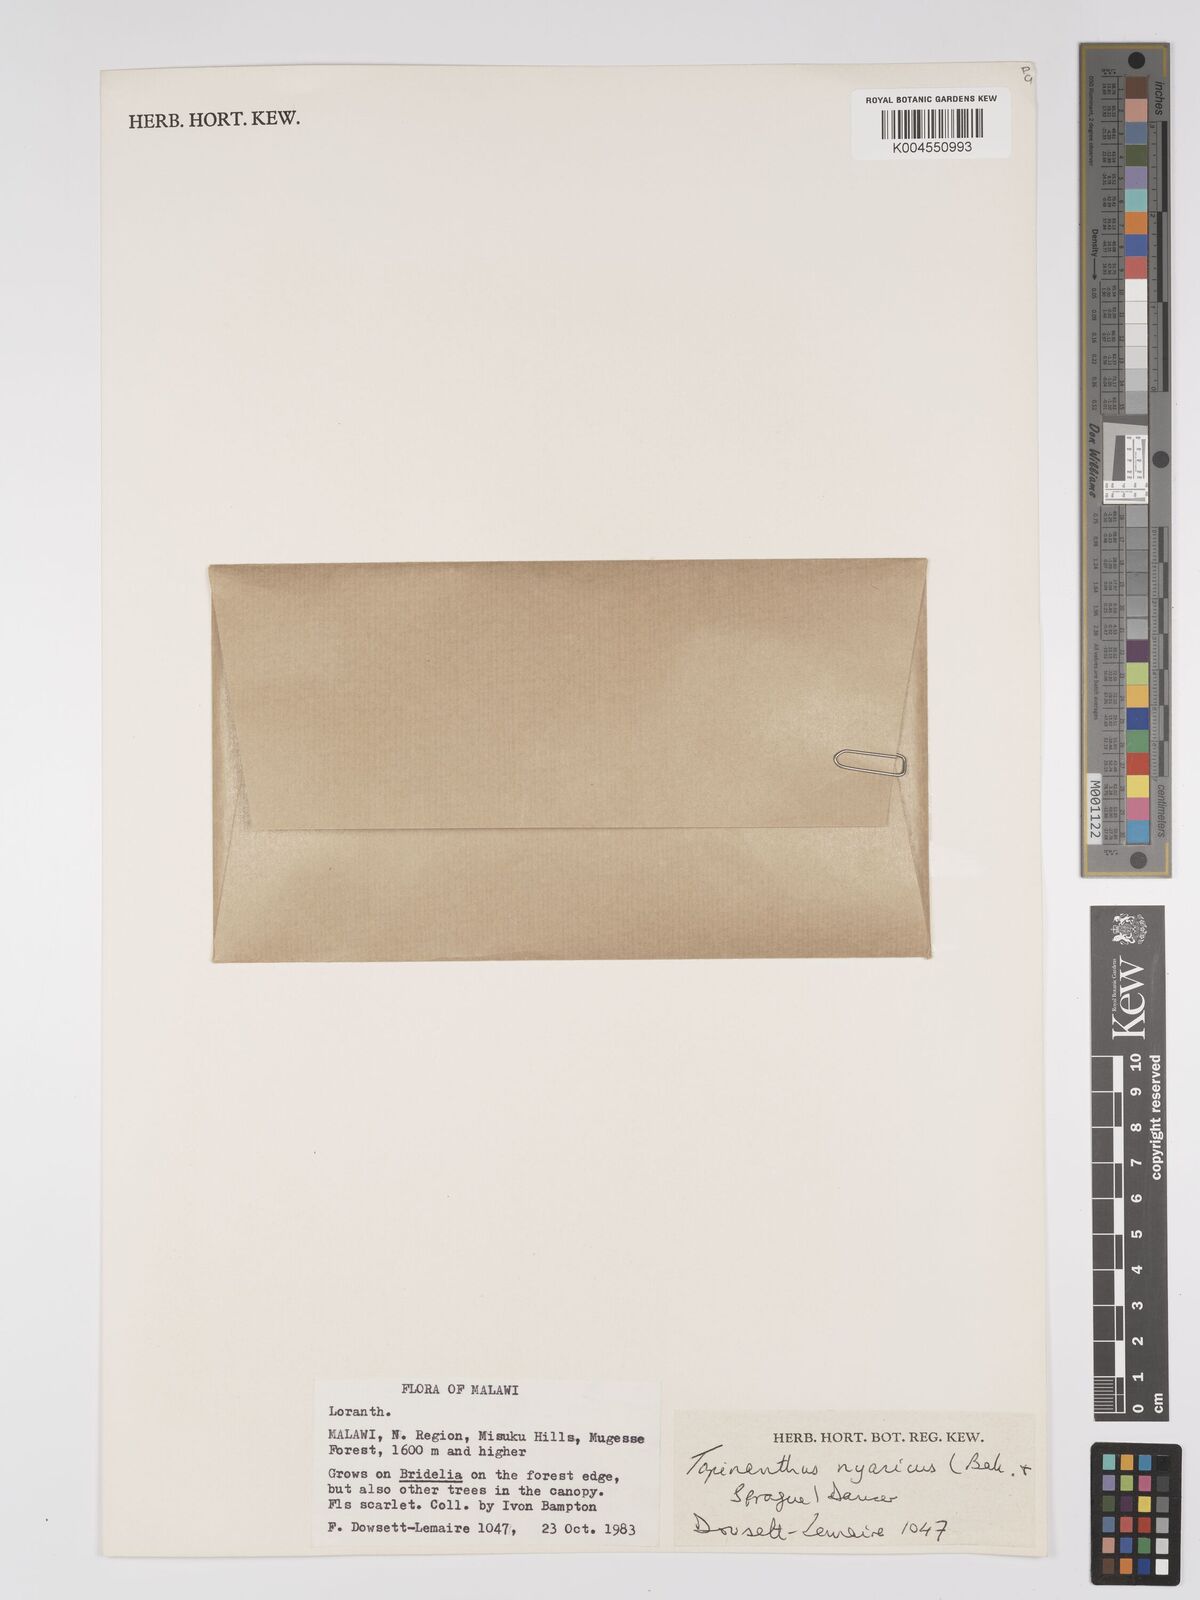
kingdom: Plantae
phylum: Tracheophyta
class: Magnoliopsida
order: Santalales
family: Loranthaceae
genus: Agelanthus
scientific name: Agelanthus nyasicus
